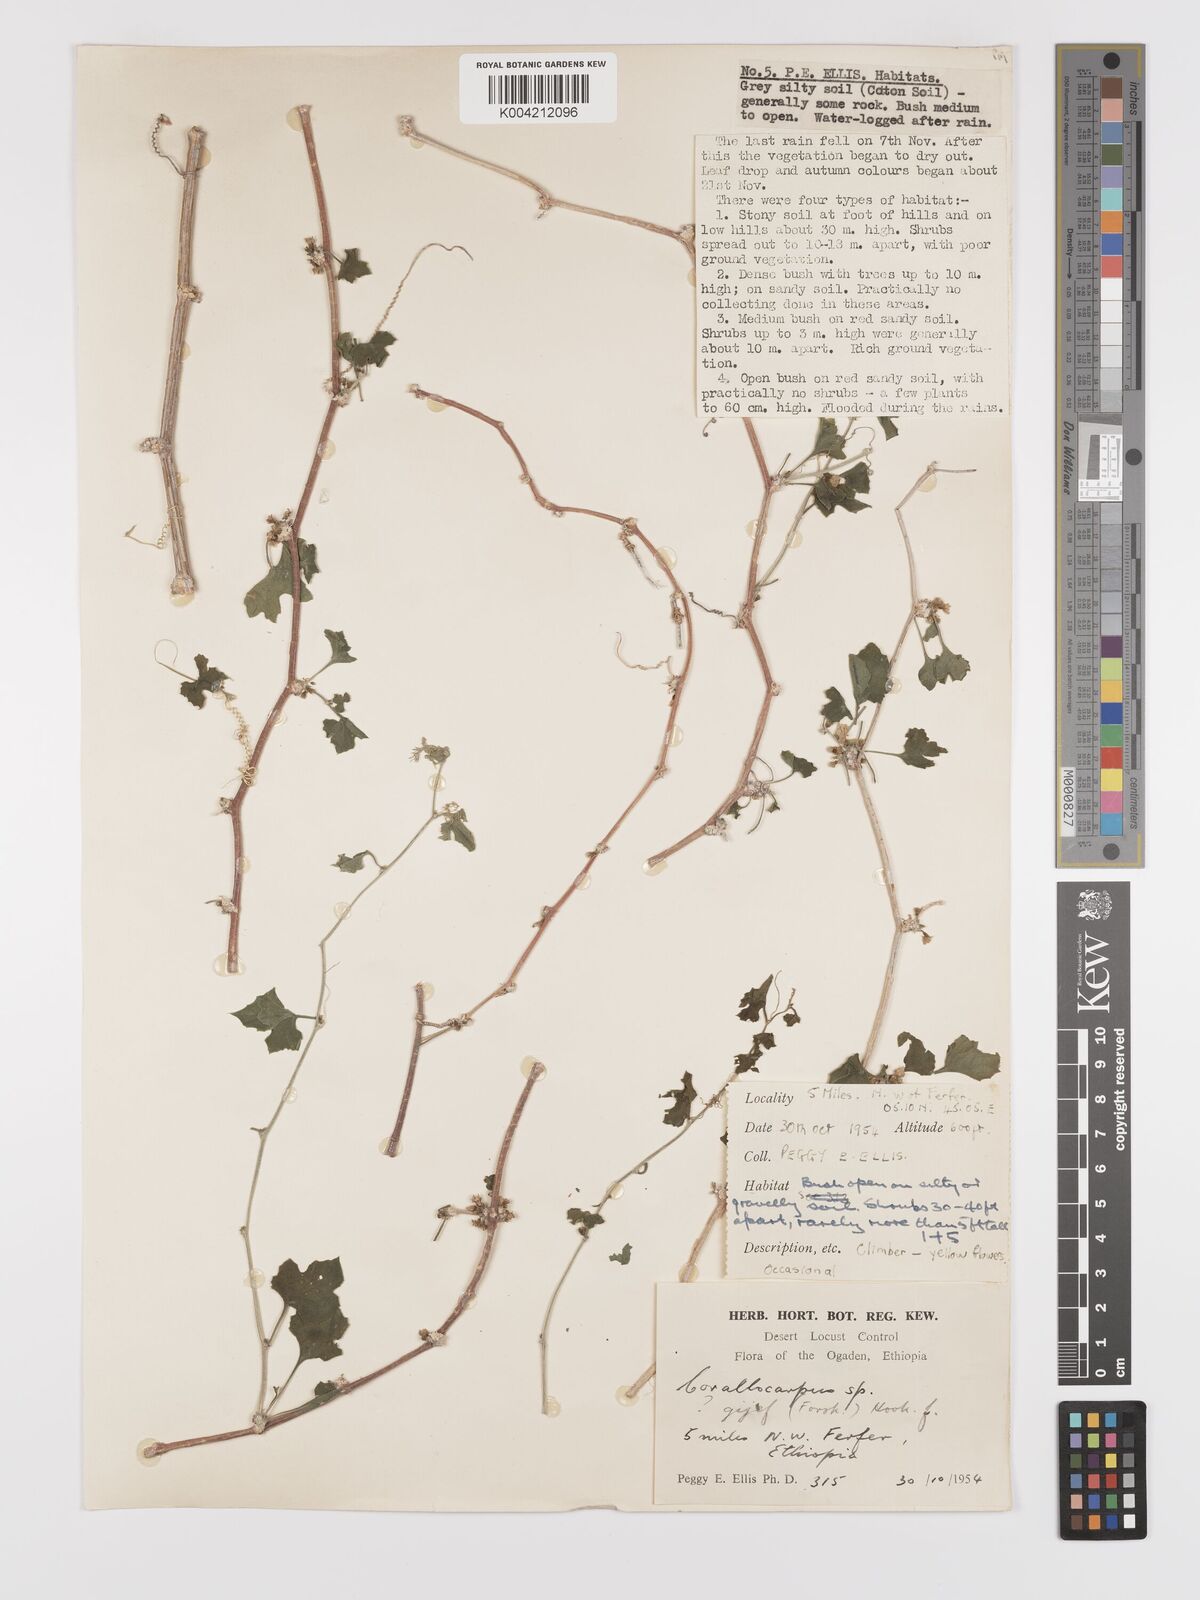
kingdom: Plantae
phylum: Tracheophyta
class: Magnoliopsida
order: Cucurbitales
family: Cucurbitaceae
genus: Kedrostis
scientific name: Kedrostis gijef
